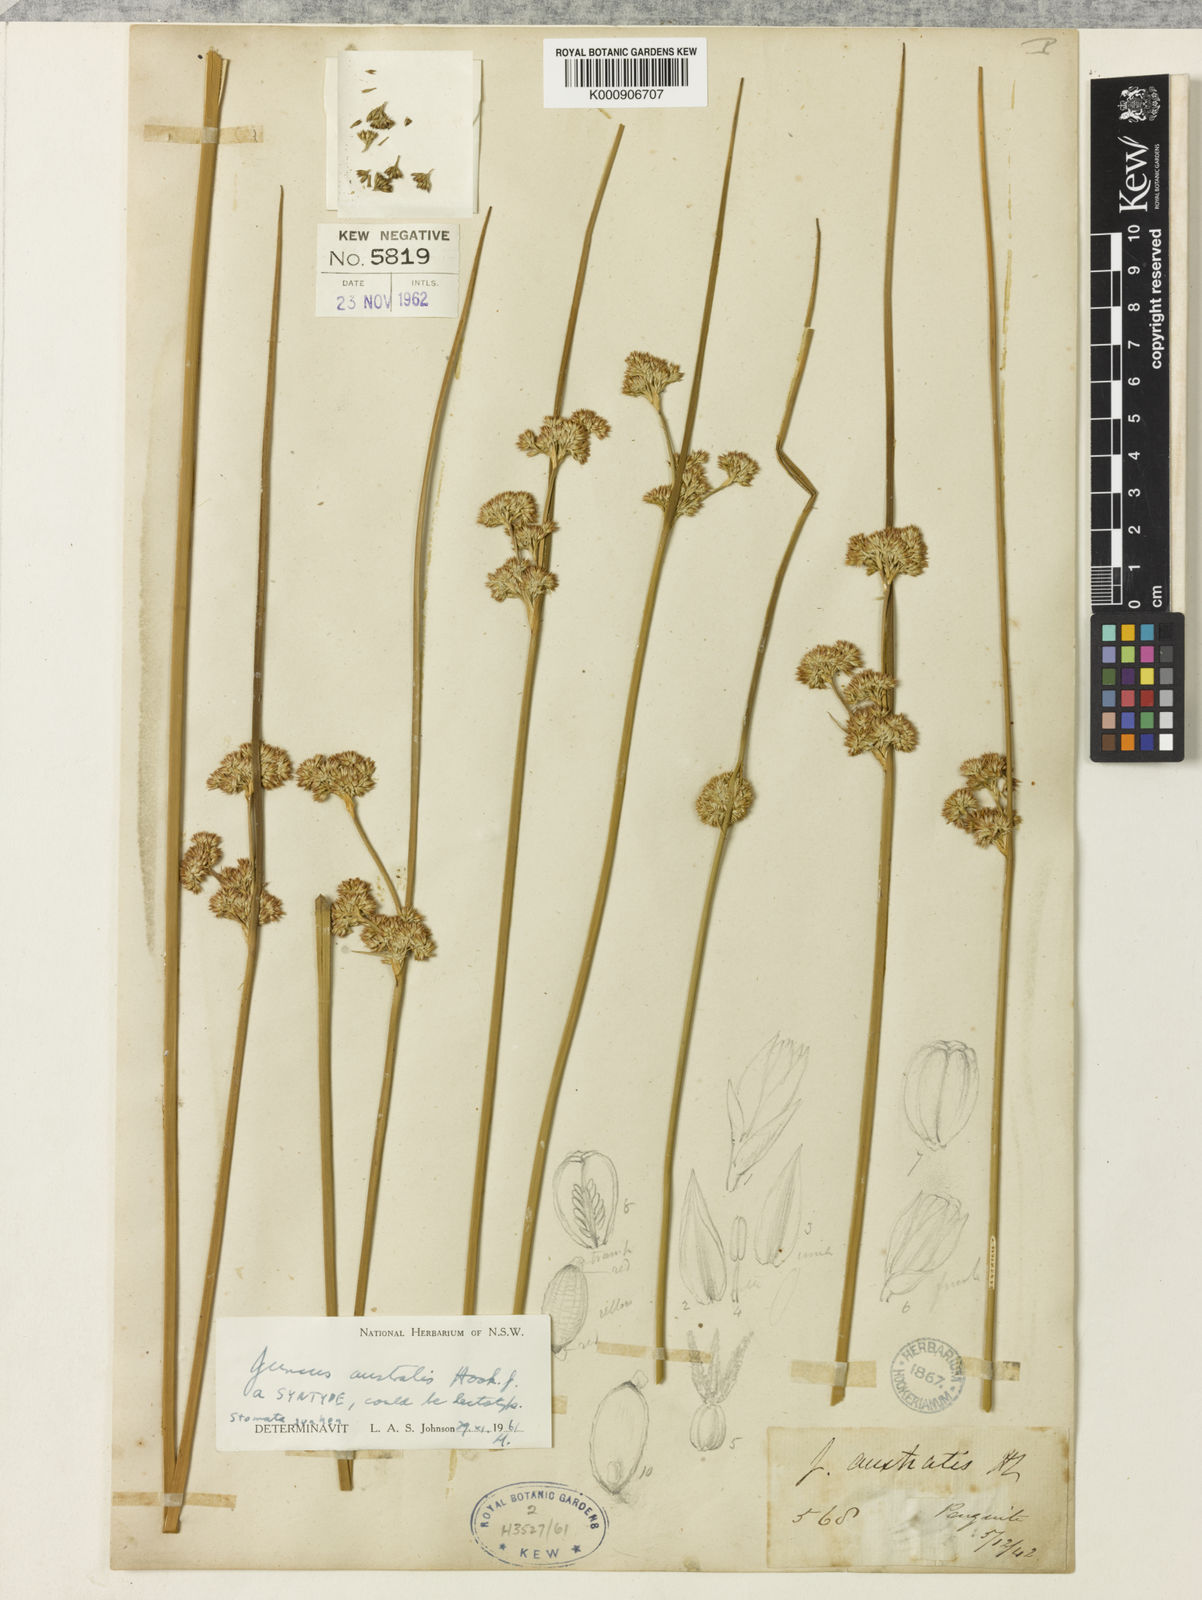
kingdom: Plantae
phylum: Tracheophyta
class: Liliopsida
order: Poales
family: Juncaceae
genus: Juncus
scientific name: Juncus australis
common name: Austral rush
